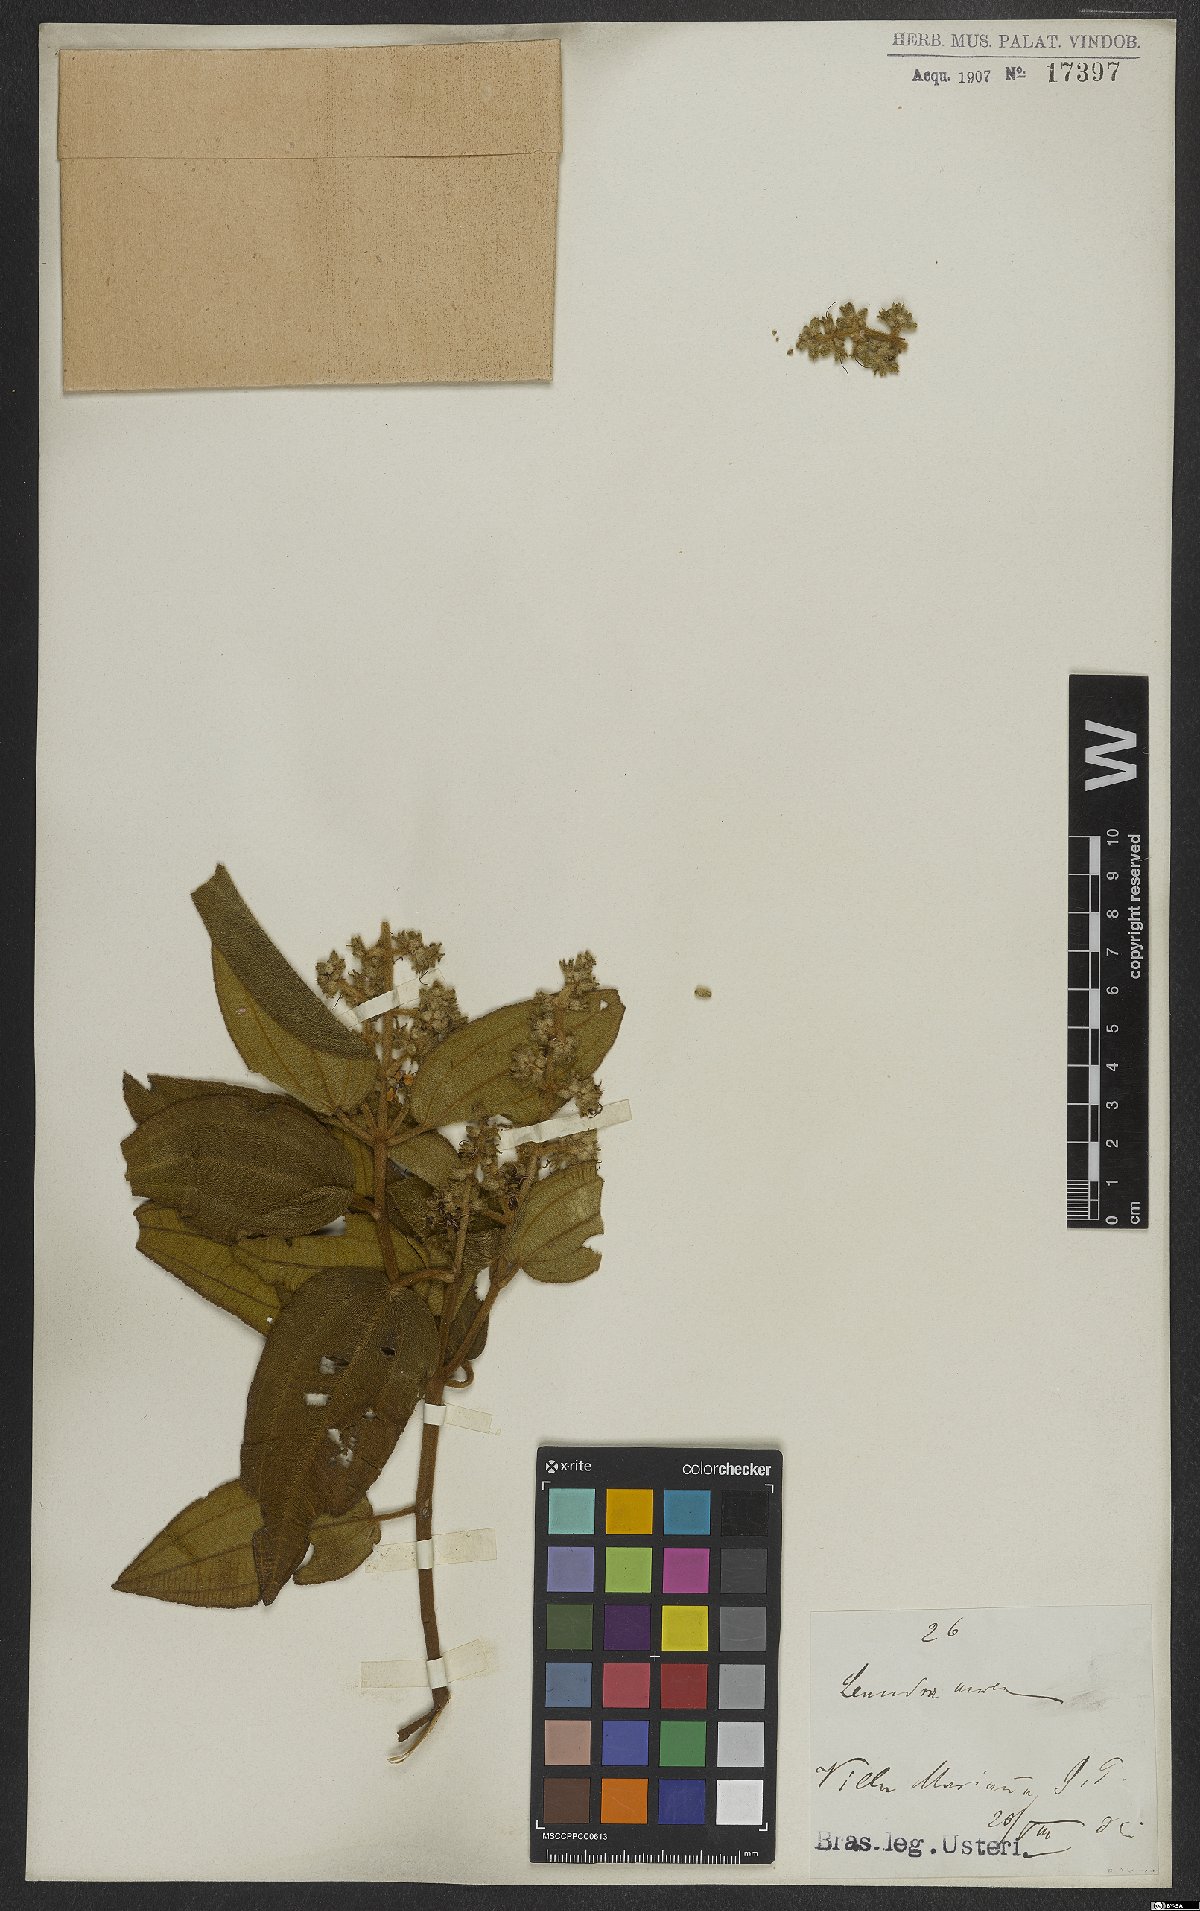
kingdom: Plantae
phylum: Tracheophyta
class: Magnoliopsida
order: Myrtales
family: Melastomataceae
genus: Miconia
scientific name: Miconia auricoma
